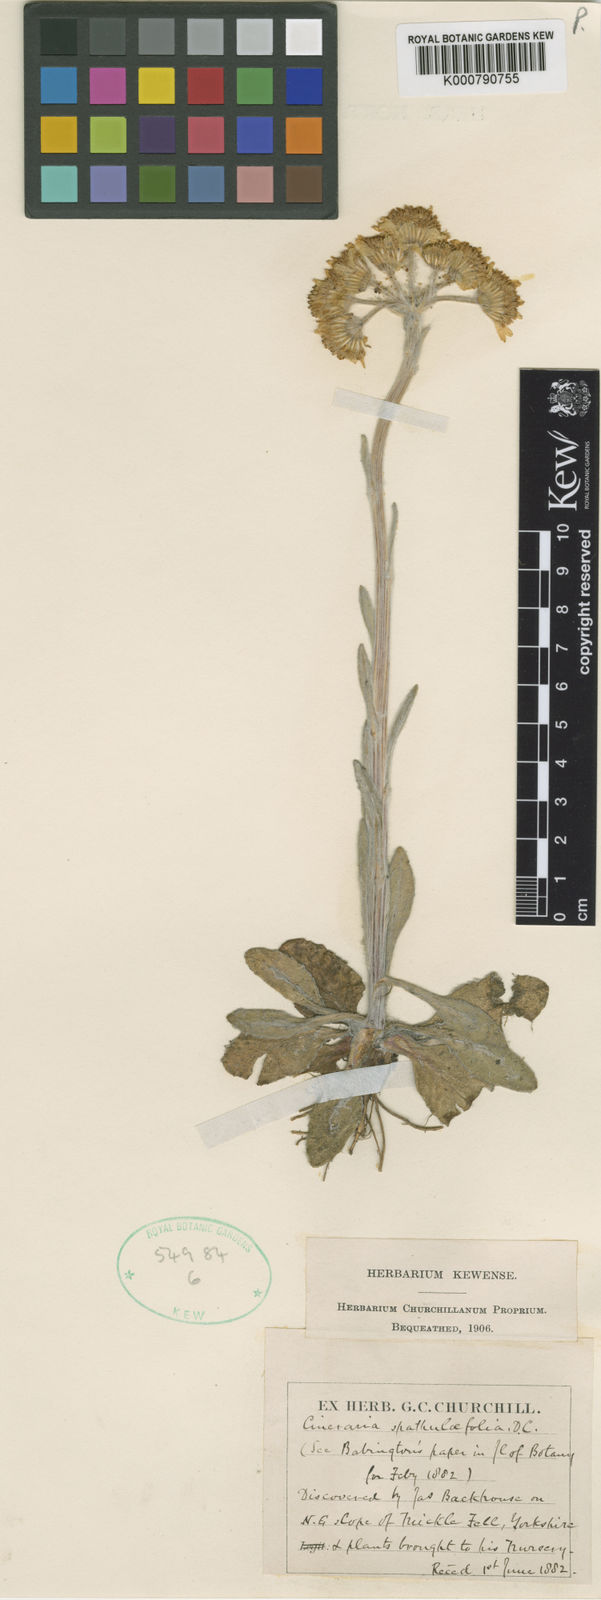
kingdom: Plantae
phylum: Tracheophyta
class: Magnoliopsida
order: Asterales
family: Asteraceae
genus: Tephroseris
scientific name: Tephroseris integrifolia
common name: Field fleawort
